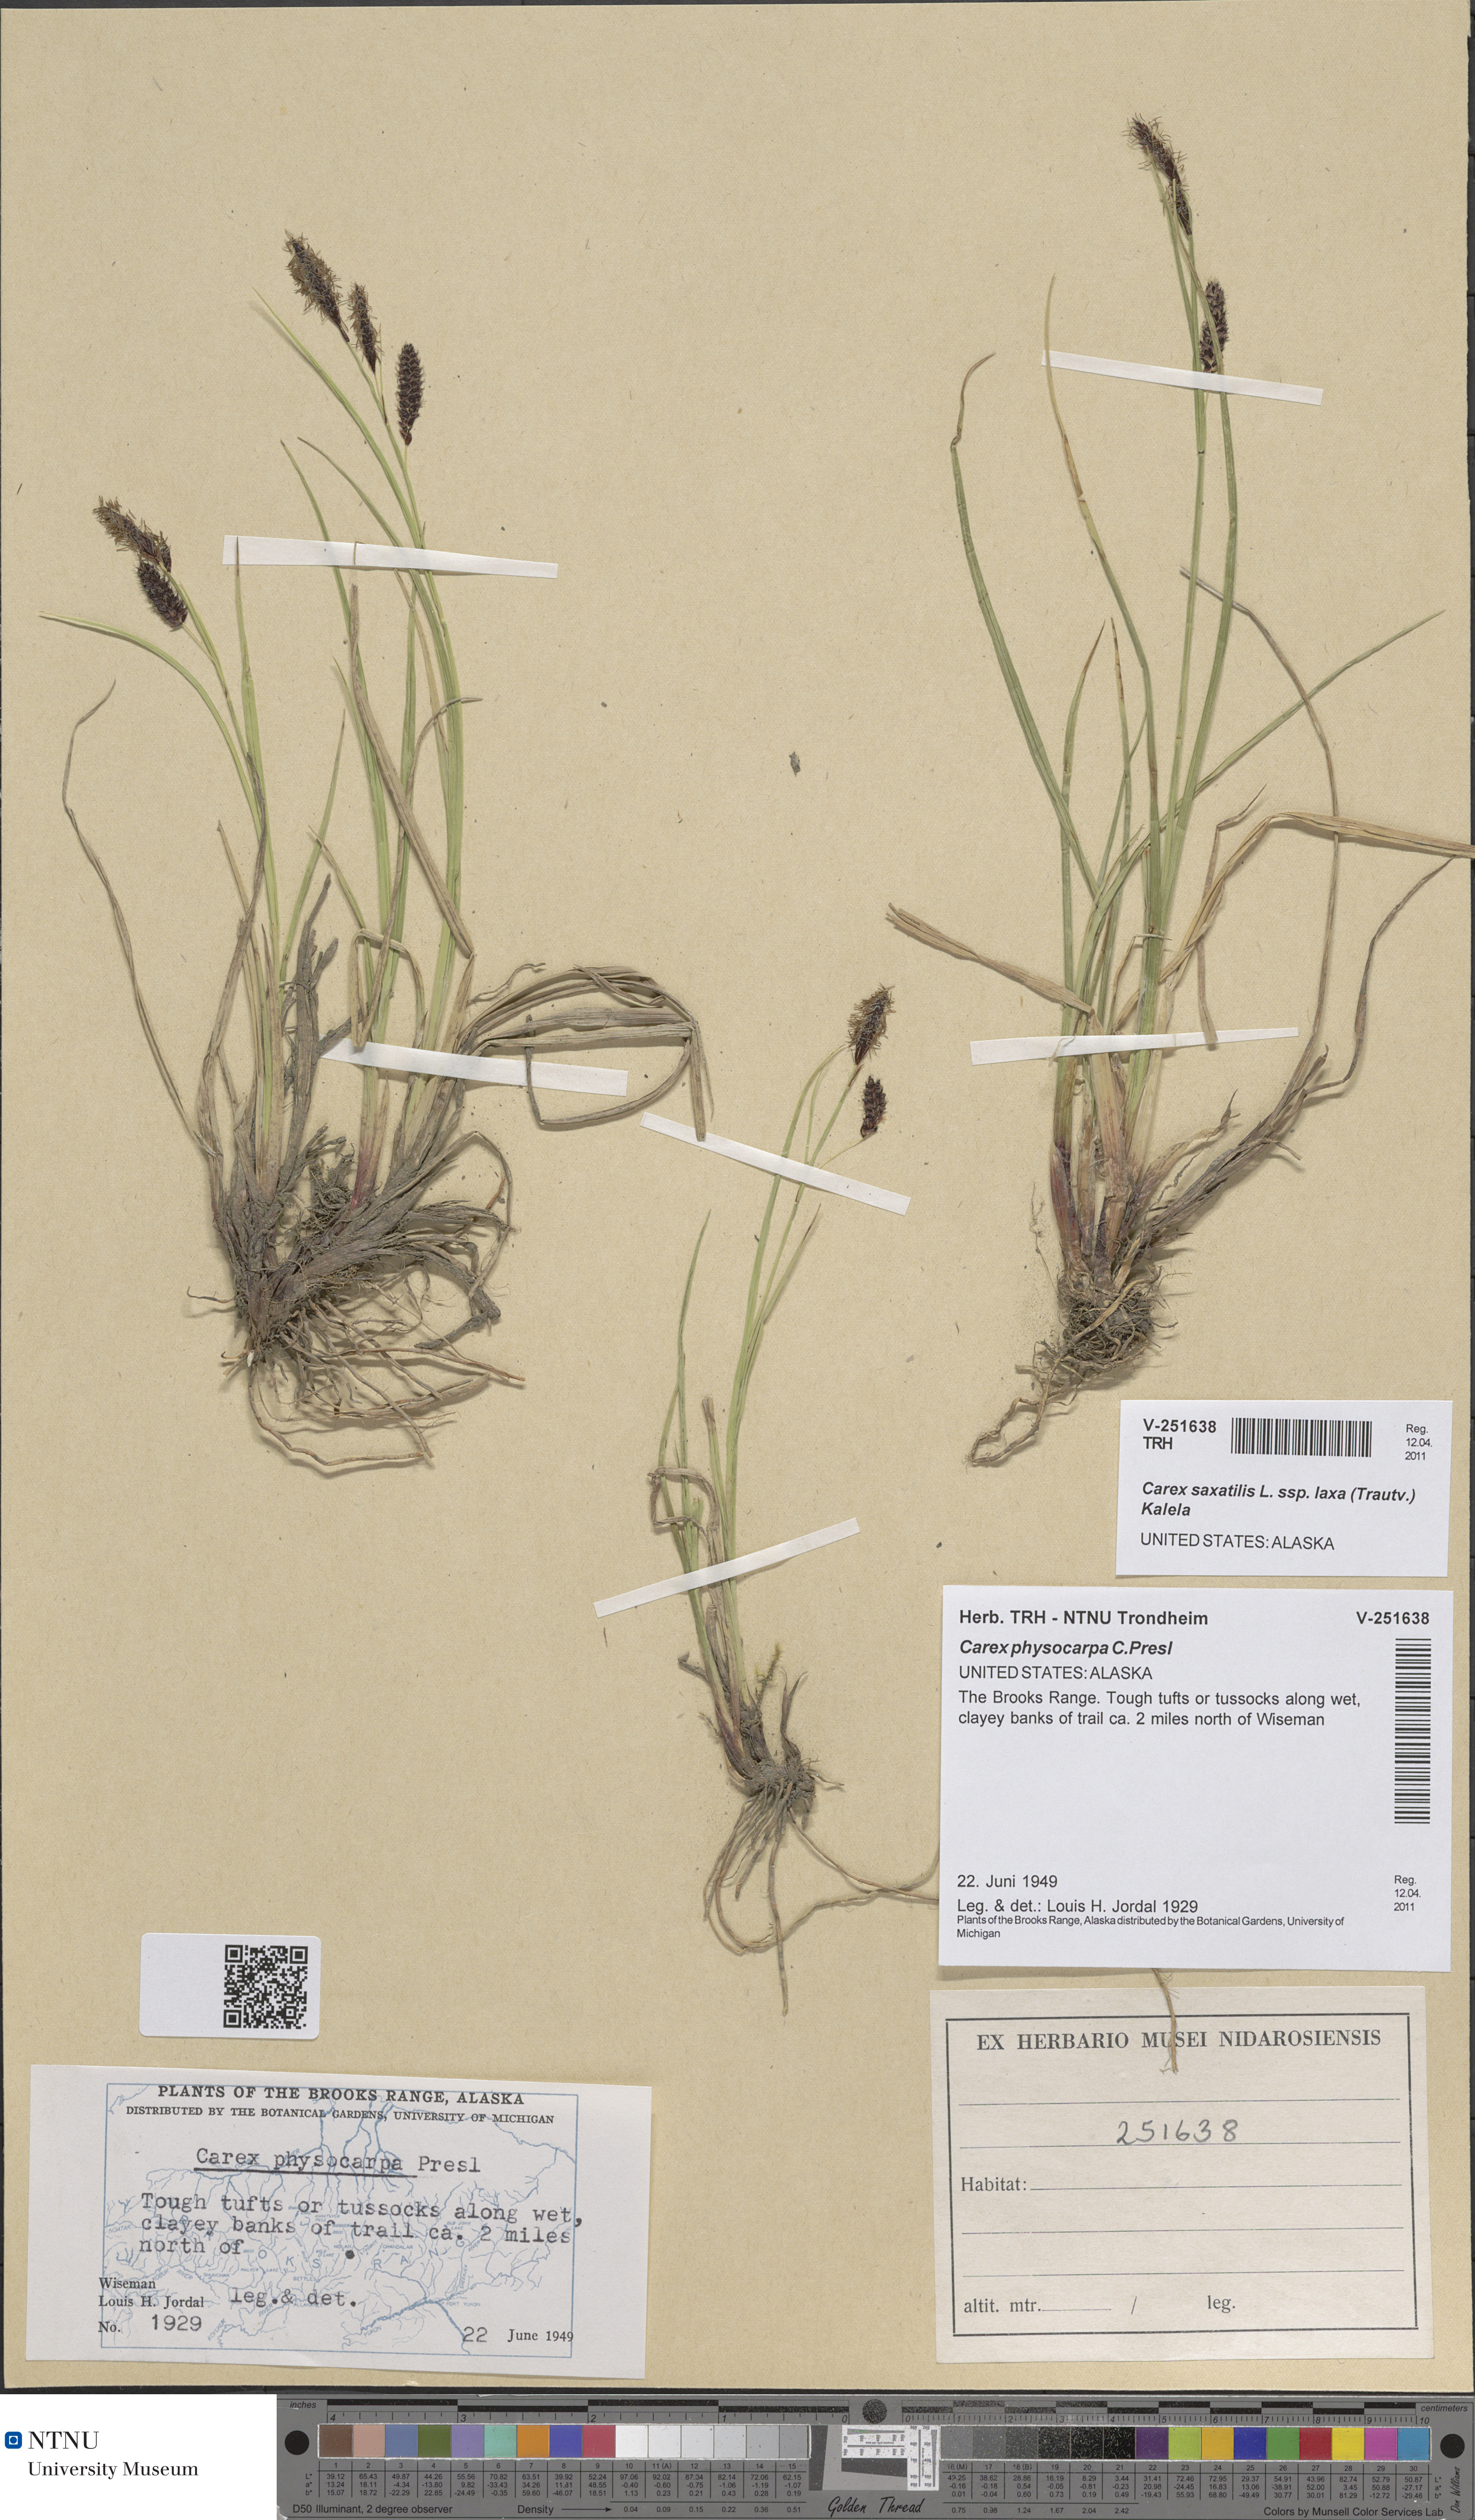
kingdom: Plantae
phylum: Tracheophyta
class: Liliopsida
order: Poales
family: Cyperaceae
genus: Carex
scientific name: Carex saxatilis
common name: Russet sedge
